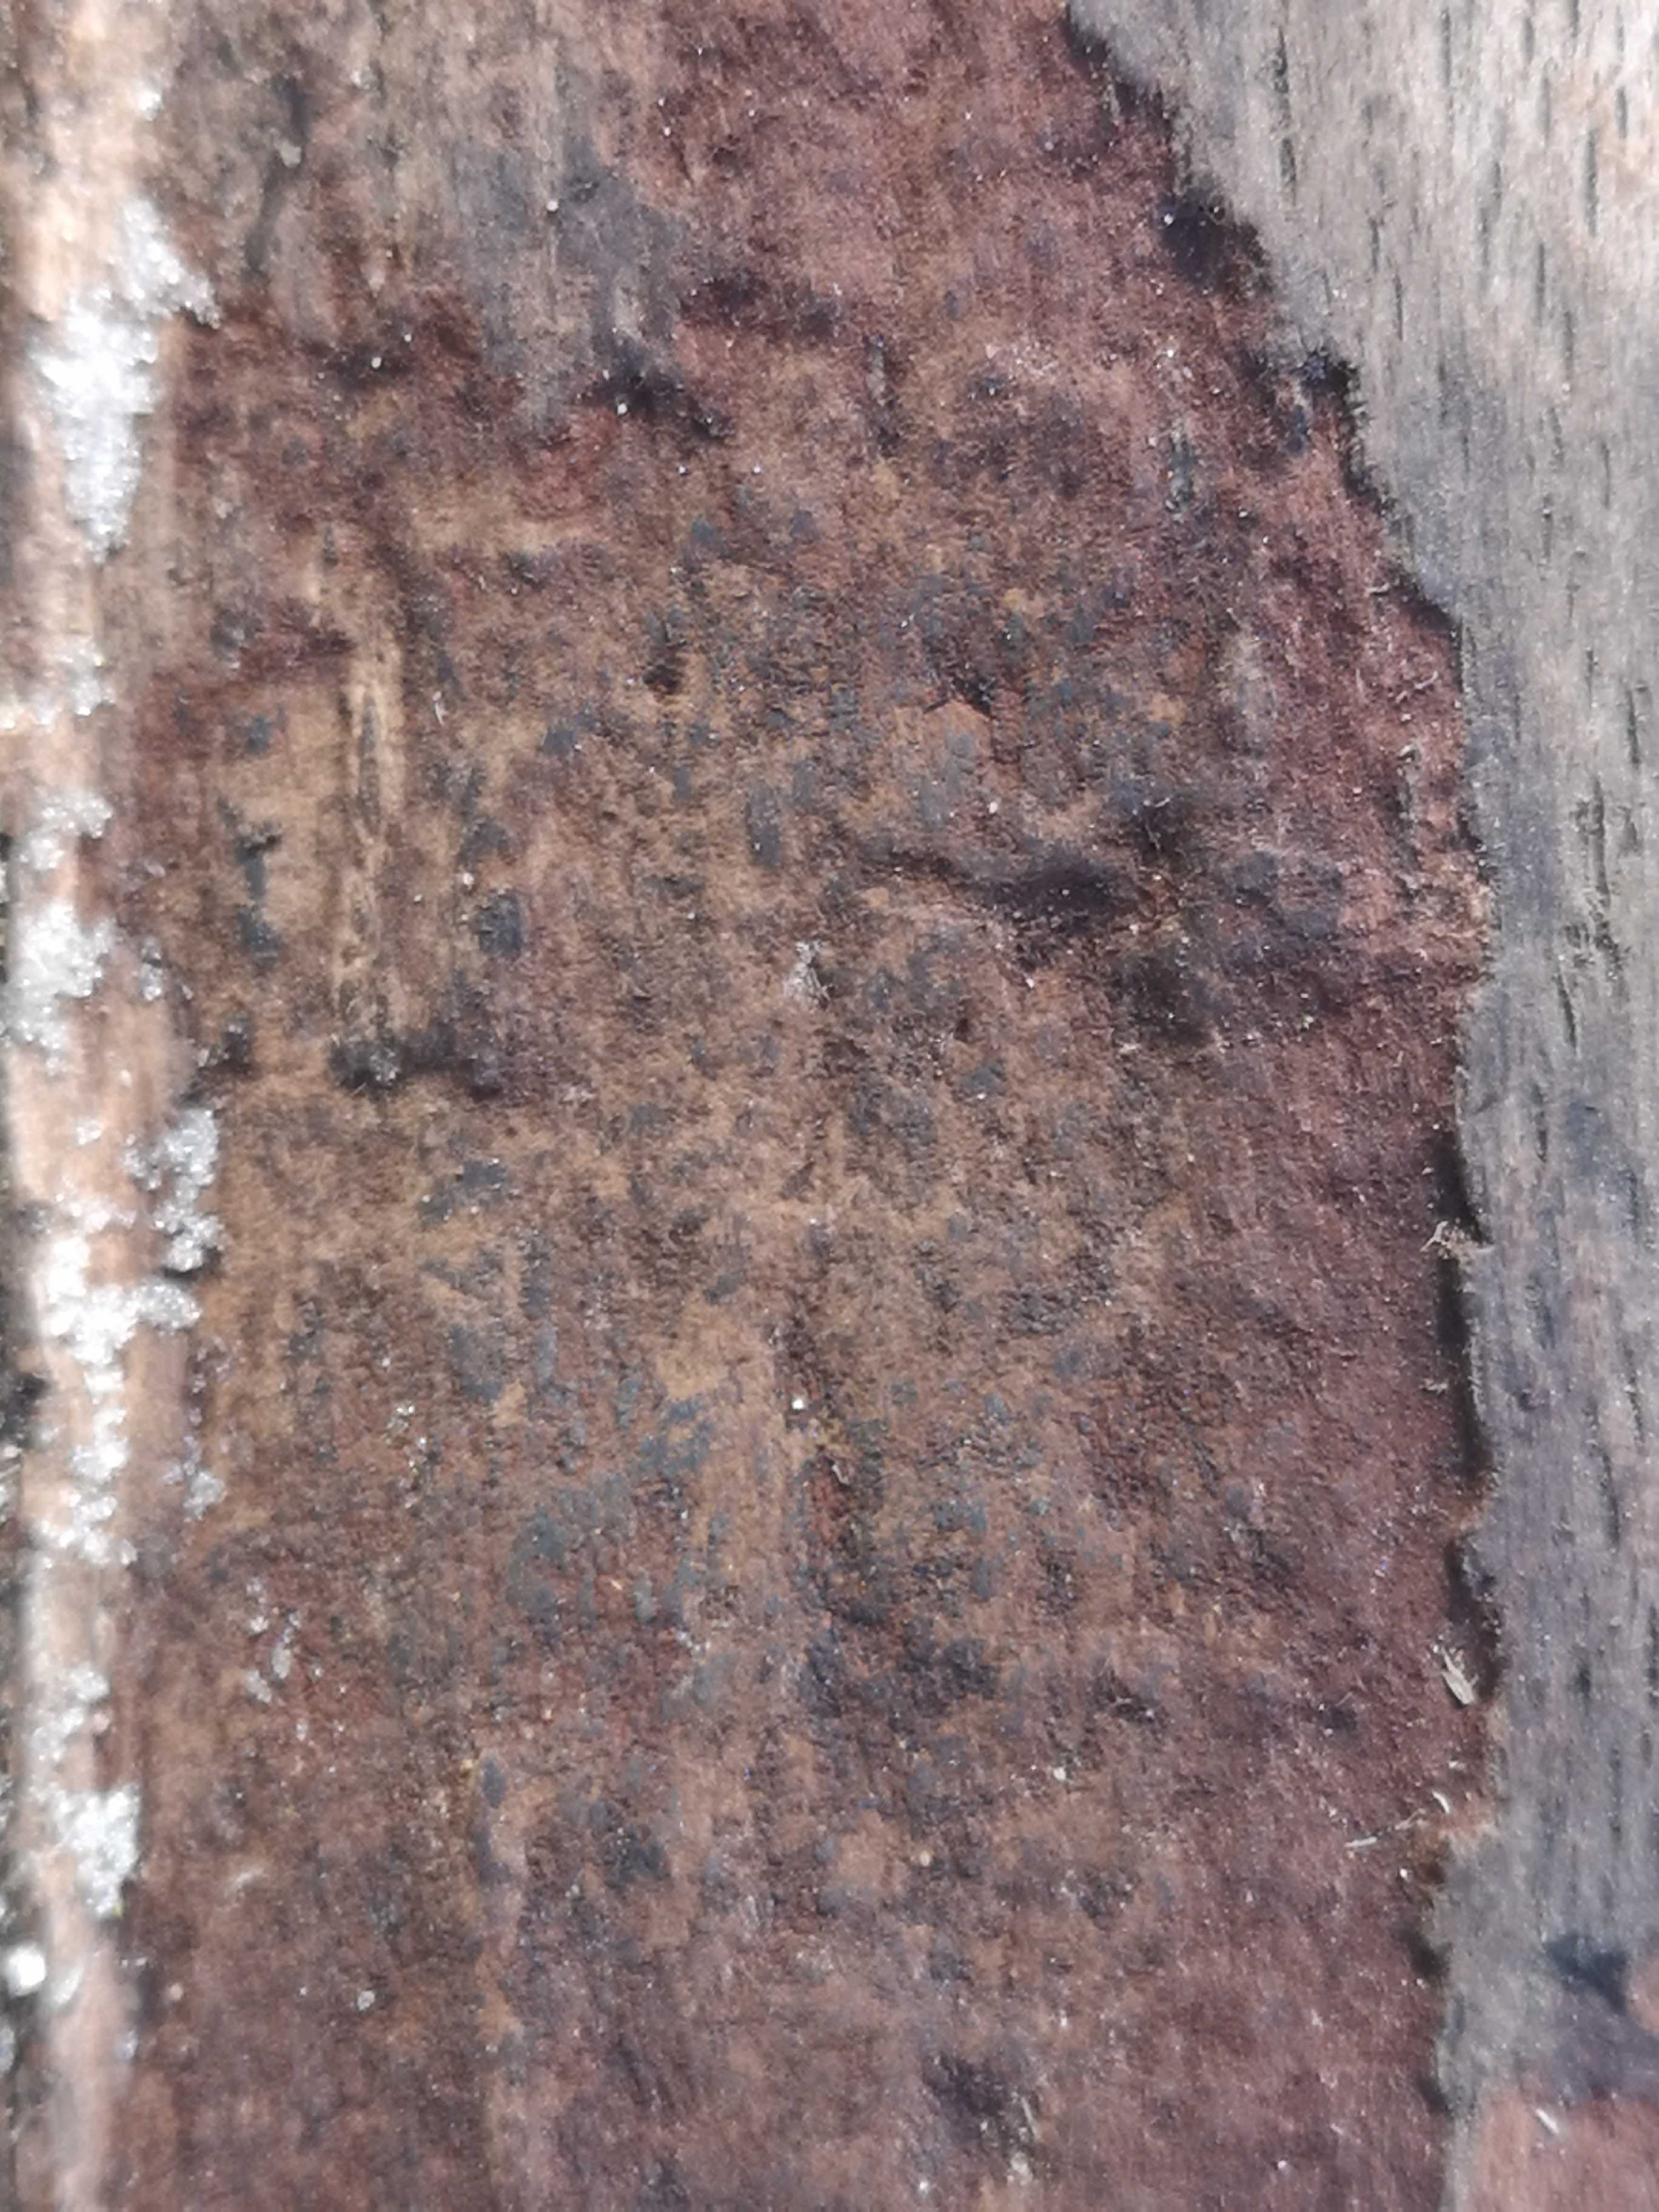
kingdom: Fungi
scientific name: Fungi
